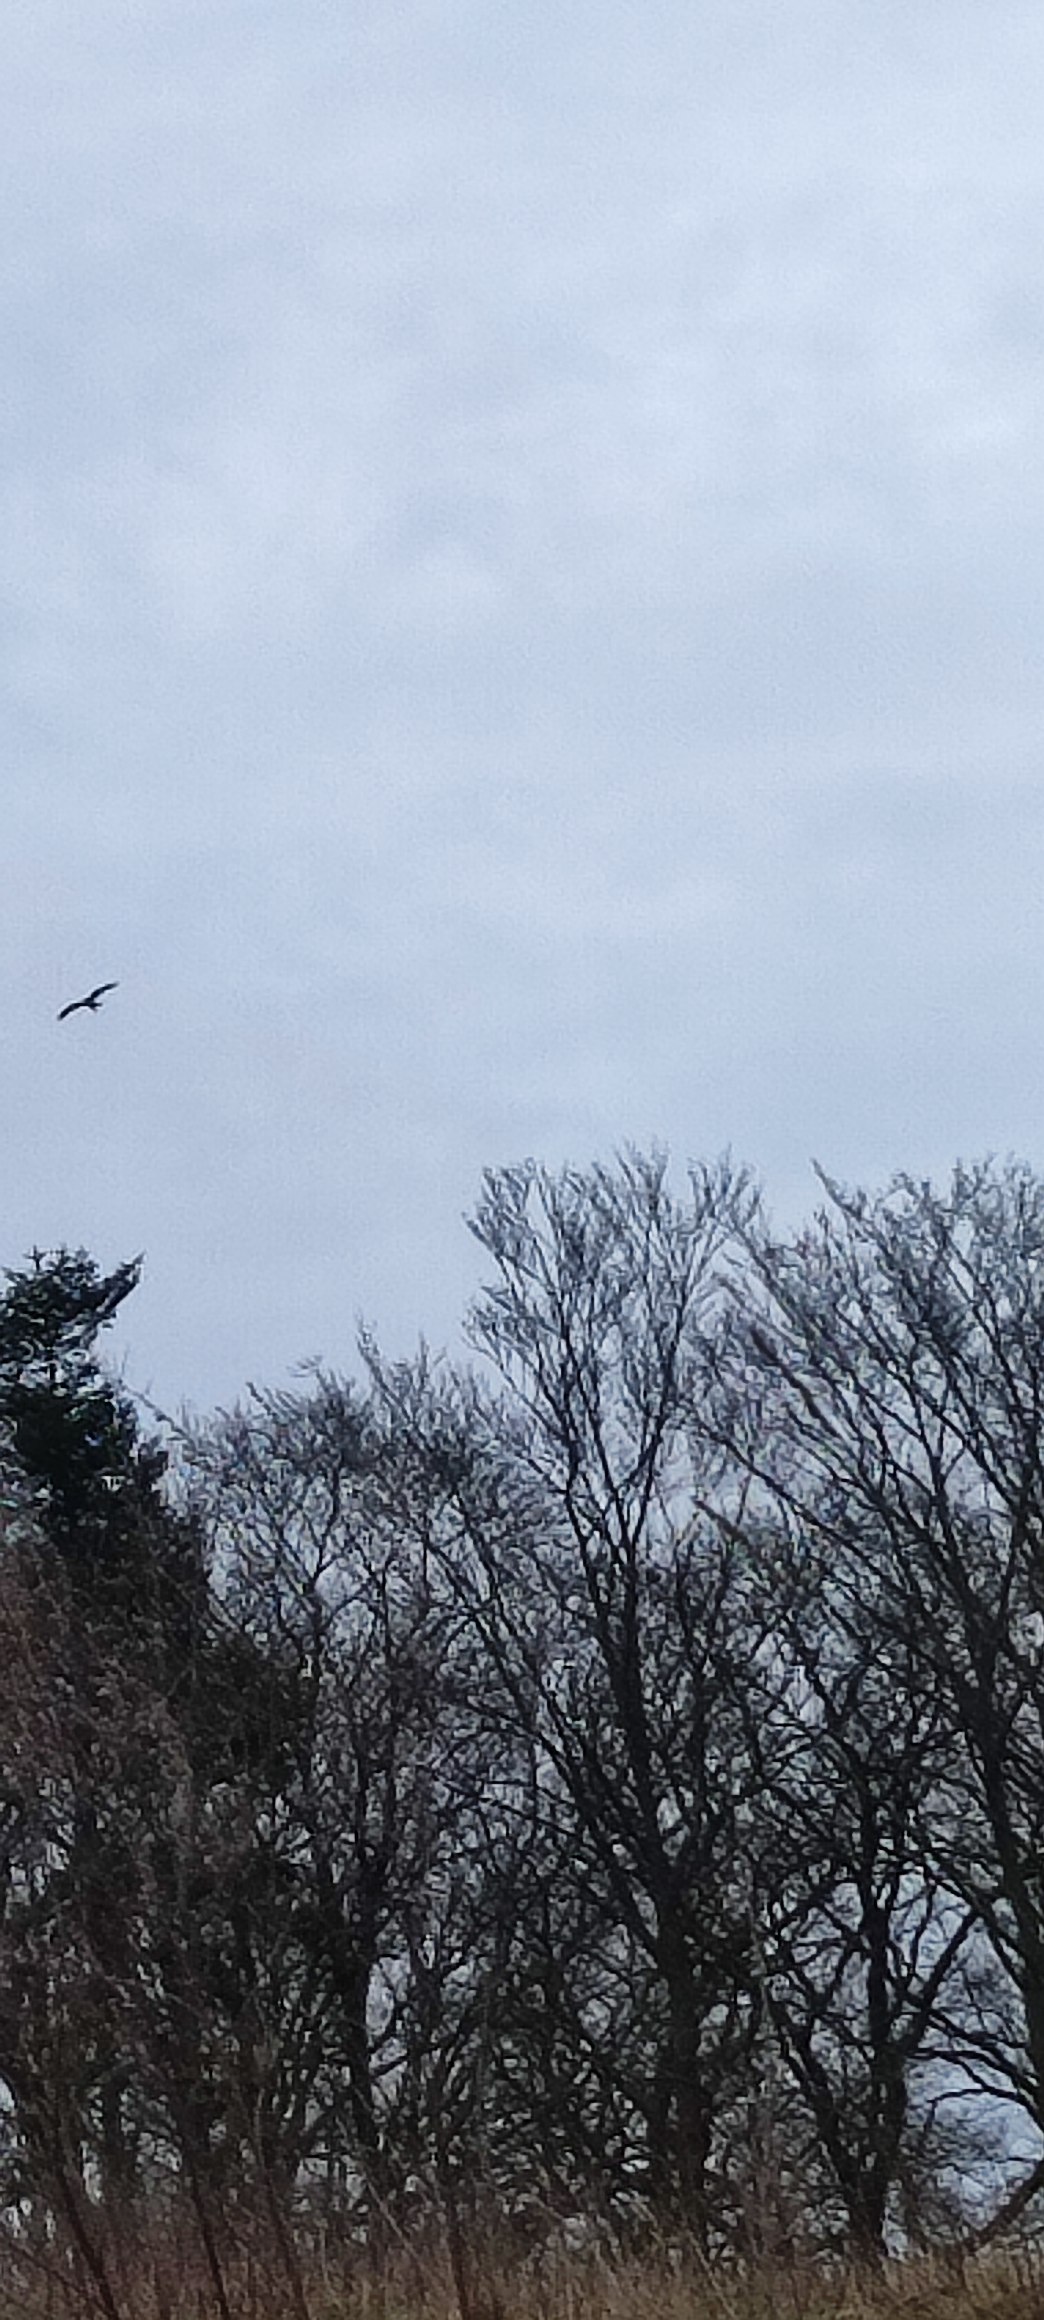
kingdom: Animalia
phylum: Chordata
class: Aves
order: Accipitriformes
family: Accipitridae
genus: Milvus
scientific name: Milvus milvus
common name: Rød glente
